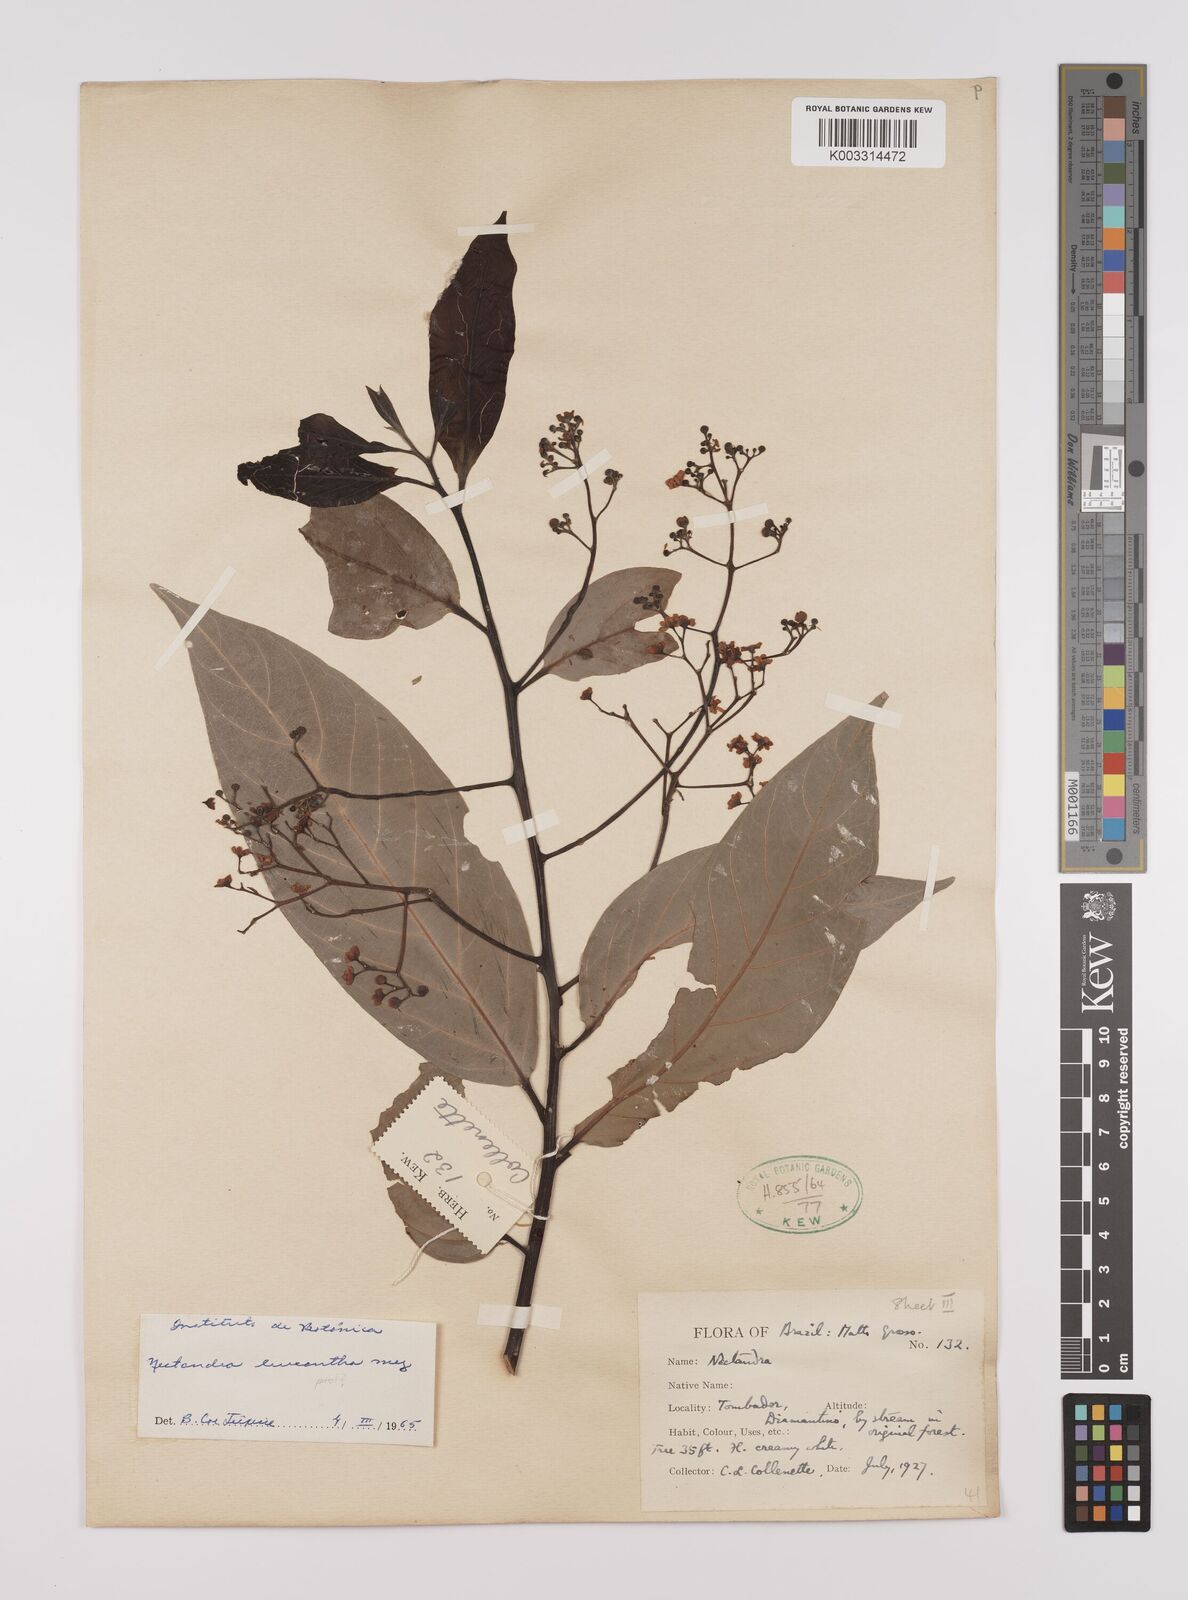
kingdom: Plantae
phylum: Tracheophyta
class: Magnoliopsida
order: Laurales
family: Lauraceae
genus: Nectandra
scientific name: Nectandra leucantha
